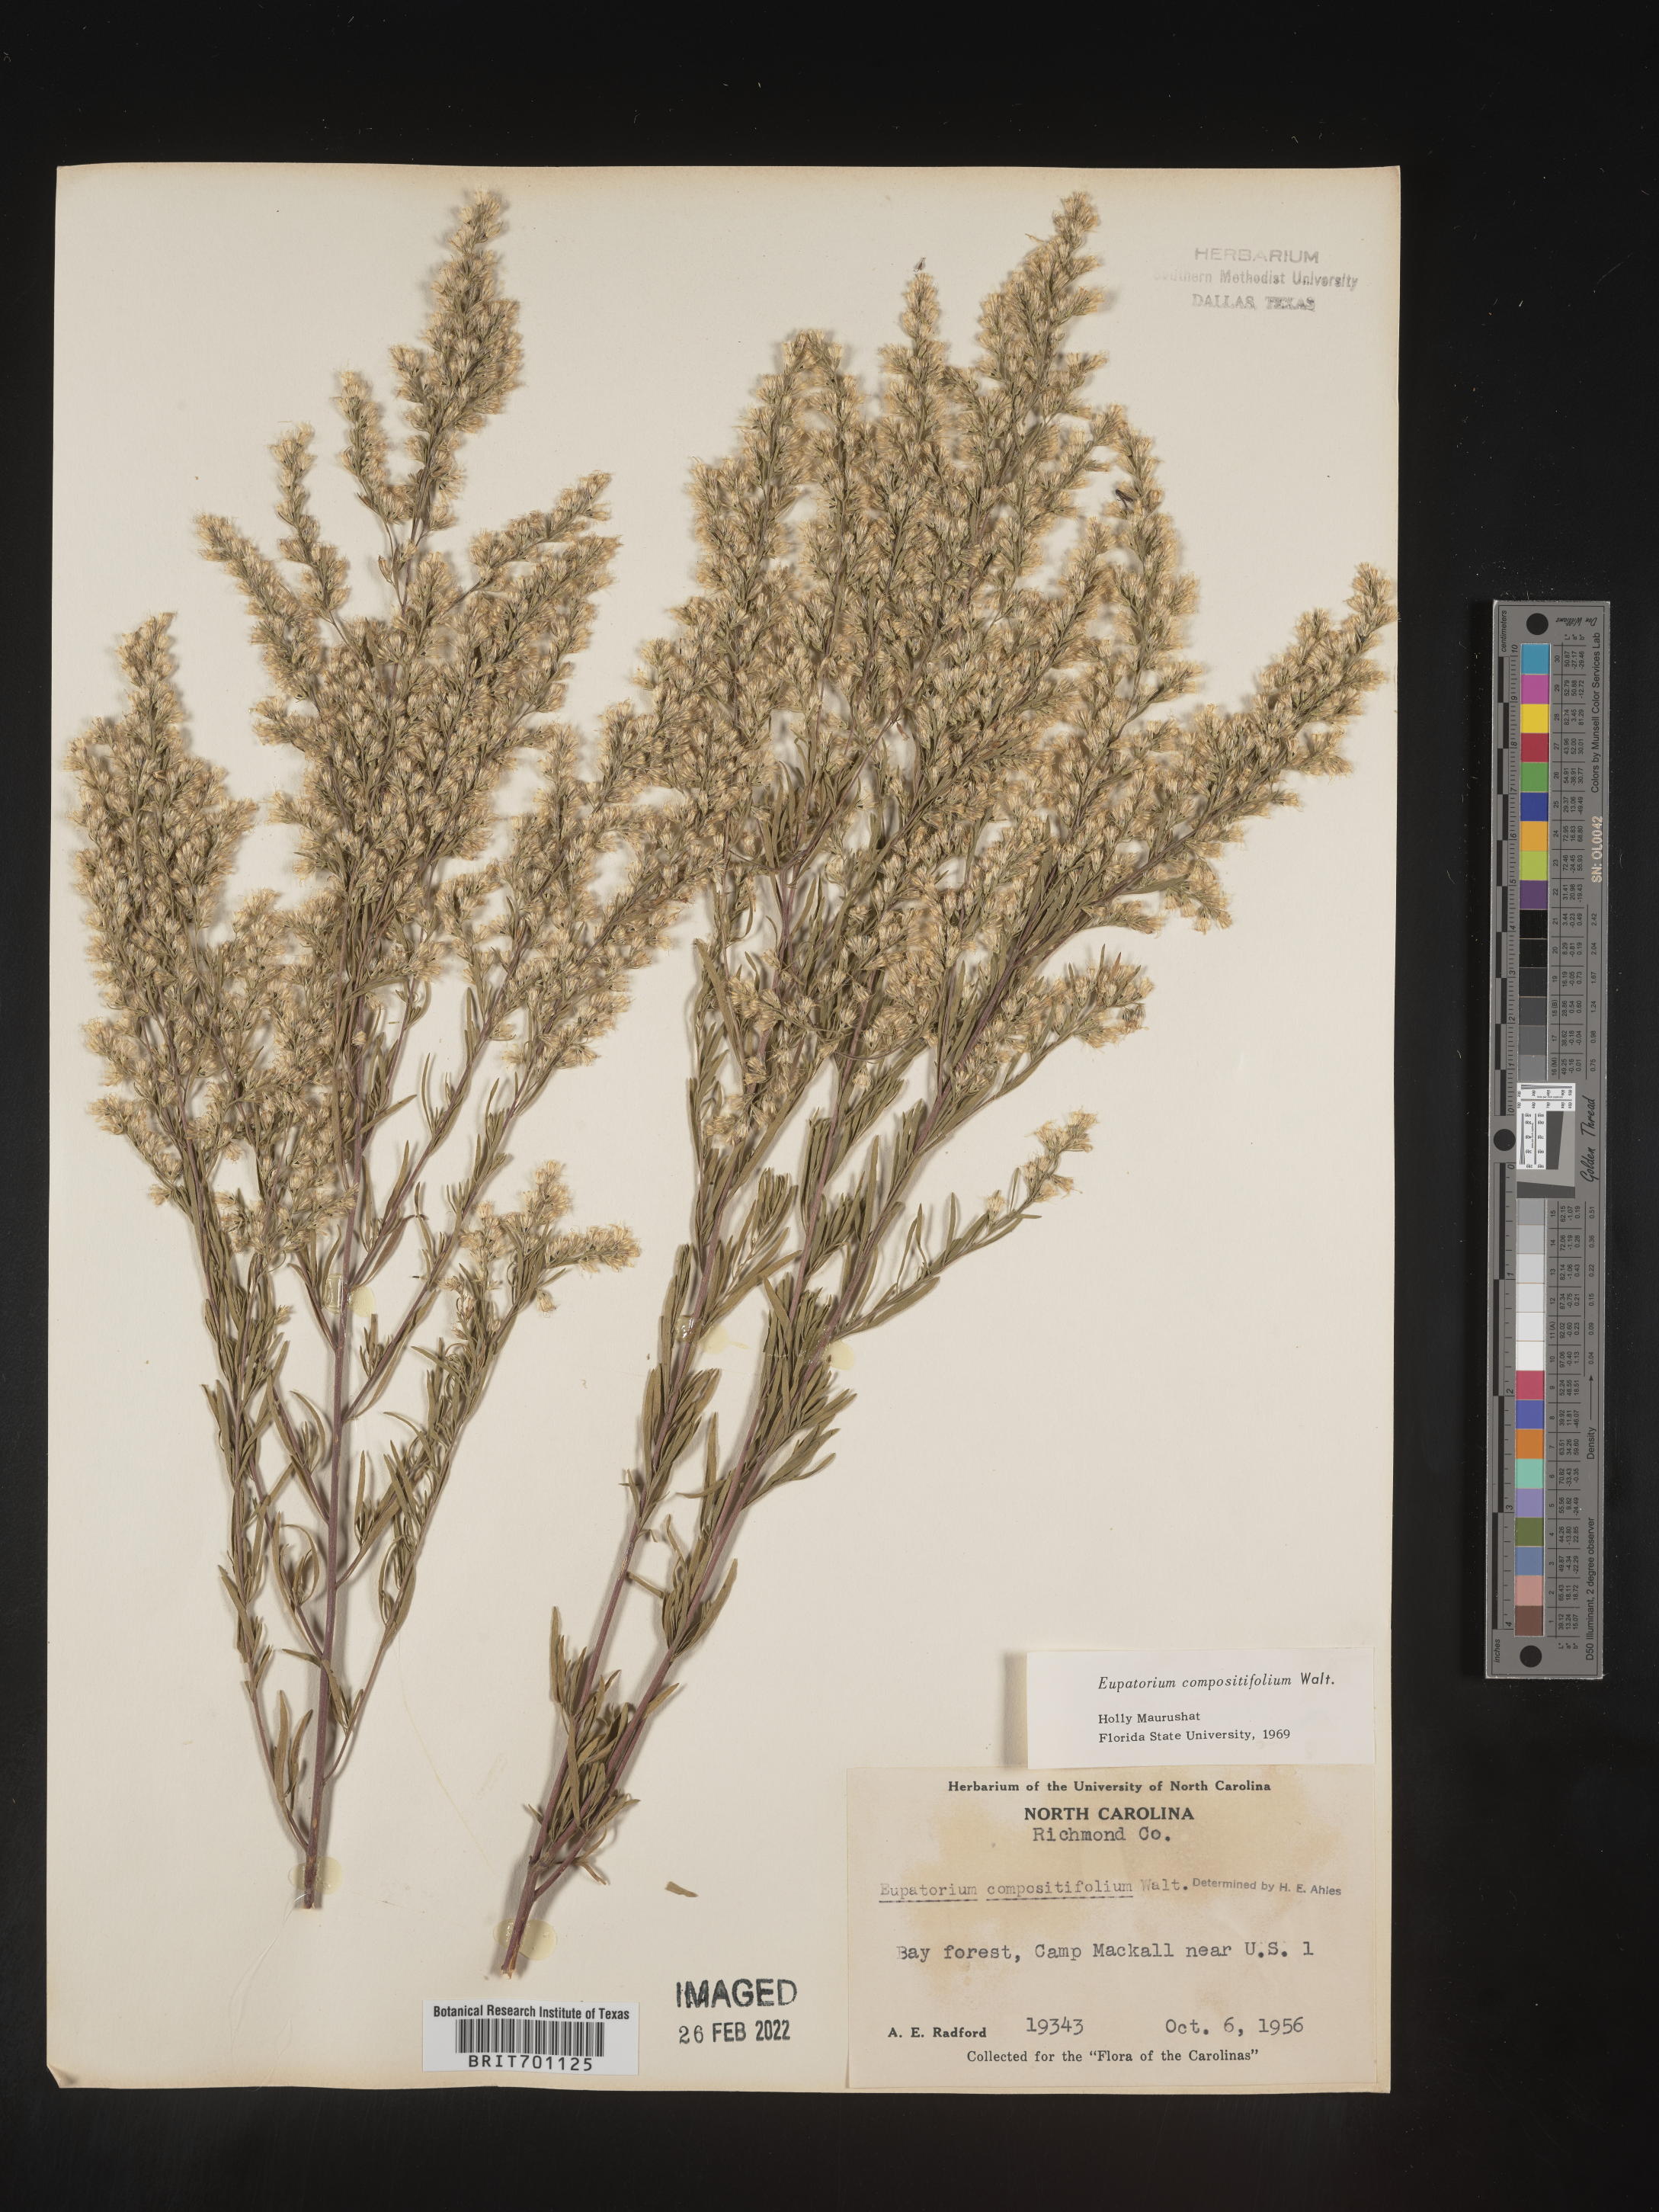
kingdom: Plantae
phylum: Tracheophyta
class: Magnoliopsida
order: Asterales
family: Asteraceae
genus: Eupatorium
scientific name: Eupatorium compositifolium
